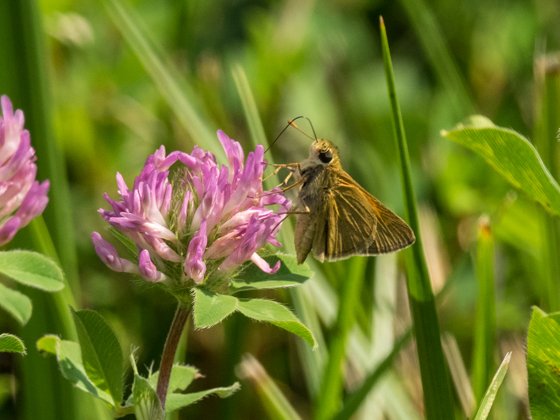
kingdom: Animalia
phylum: Arthropoda
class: Insecta
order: Lepidoptera
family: Hesperiidae
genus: Polites
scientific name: Polites themistocles
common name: Tawny-edged Skipper
